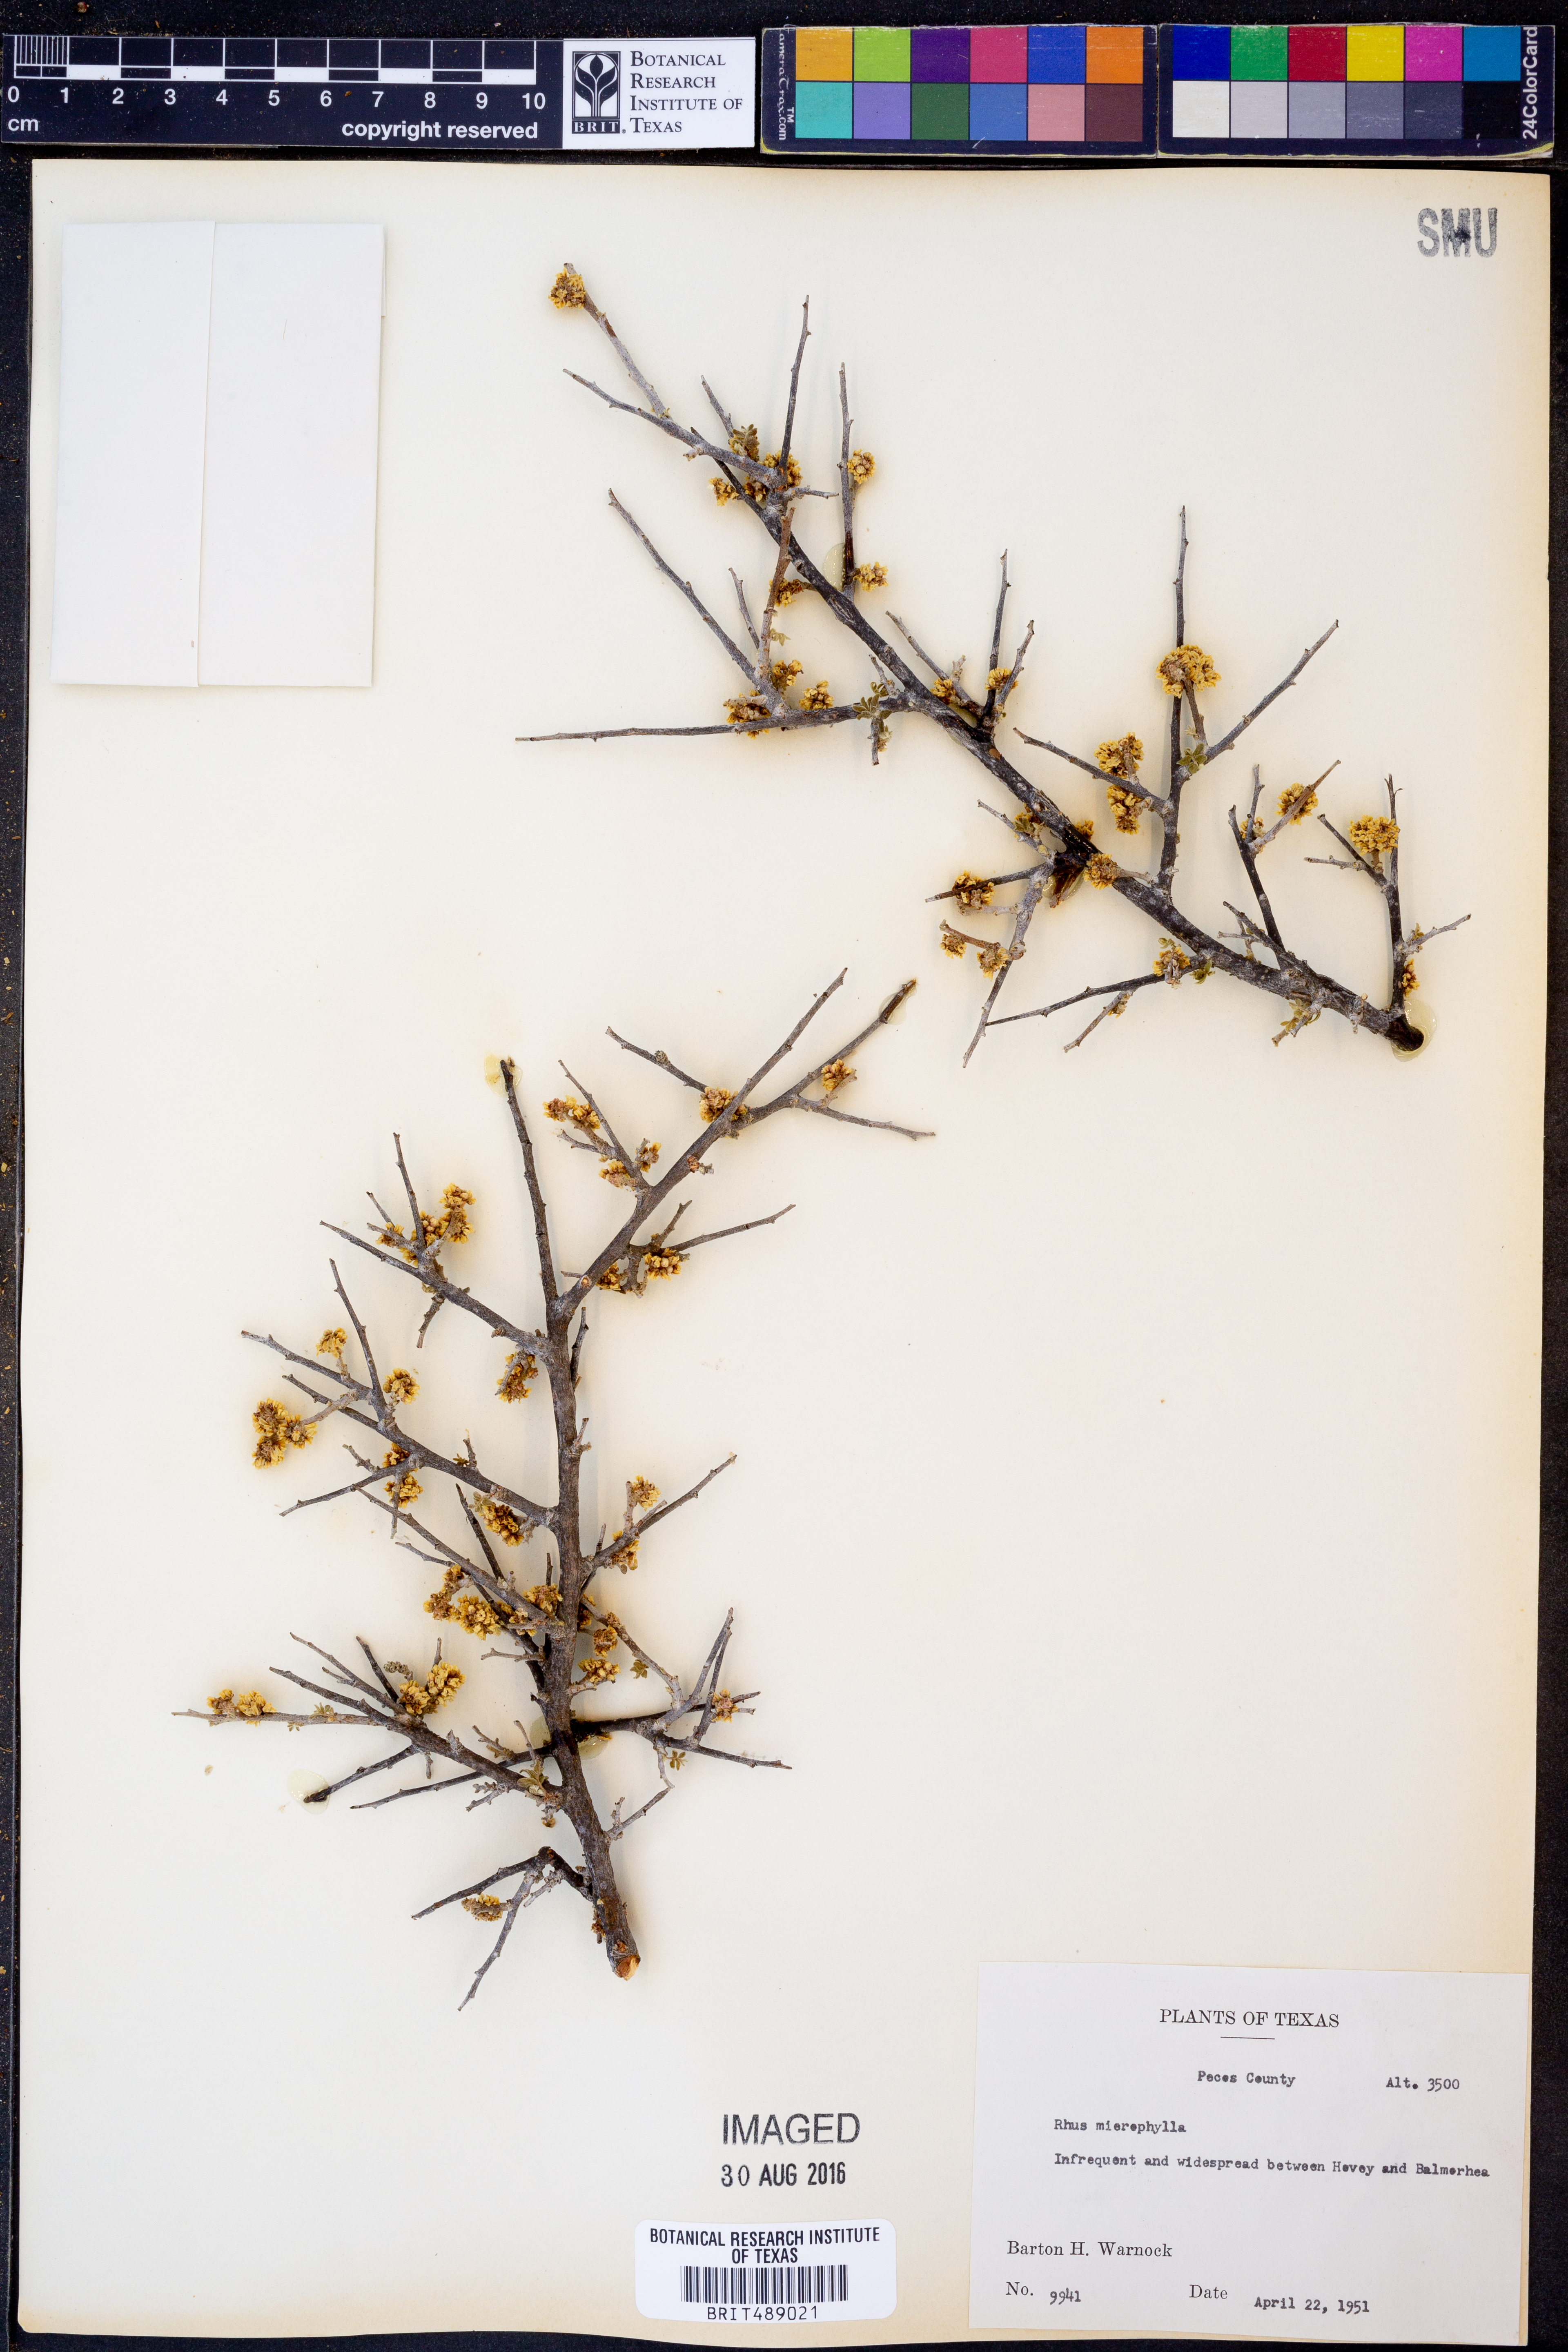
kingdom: Plantae
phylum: Tracheophyta
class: Magnoliopsida
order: Sapindales
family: Anacardiaceae
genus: Rhus
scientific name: Rhus microphylla
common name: Desert sumac
